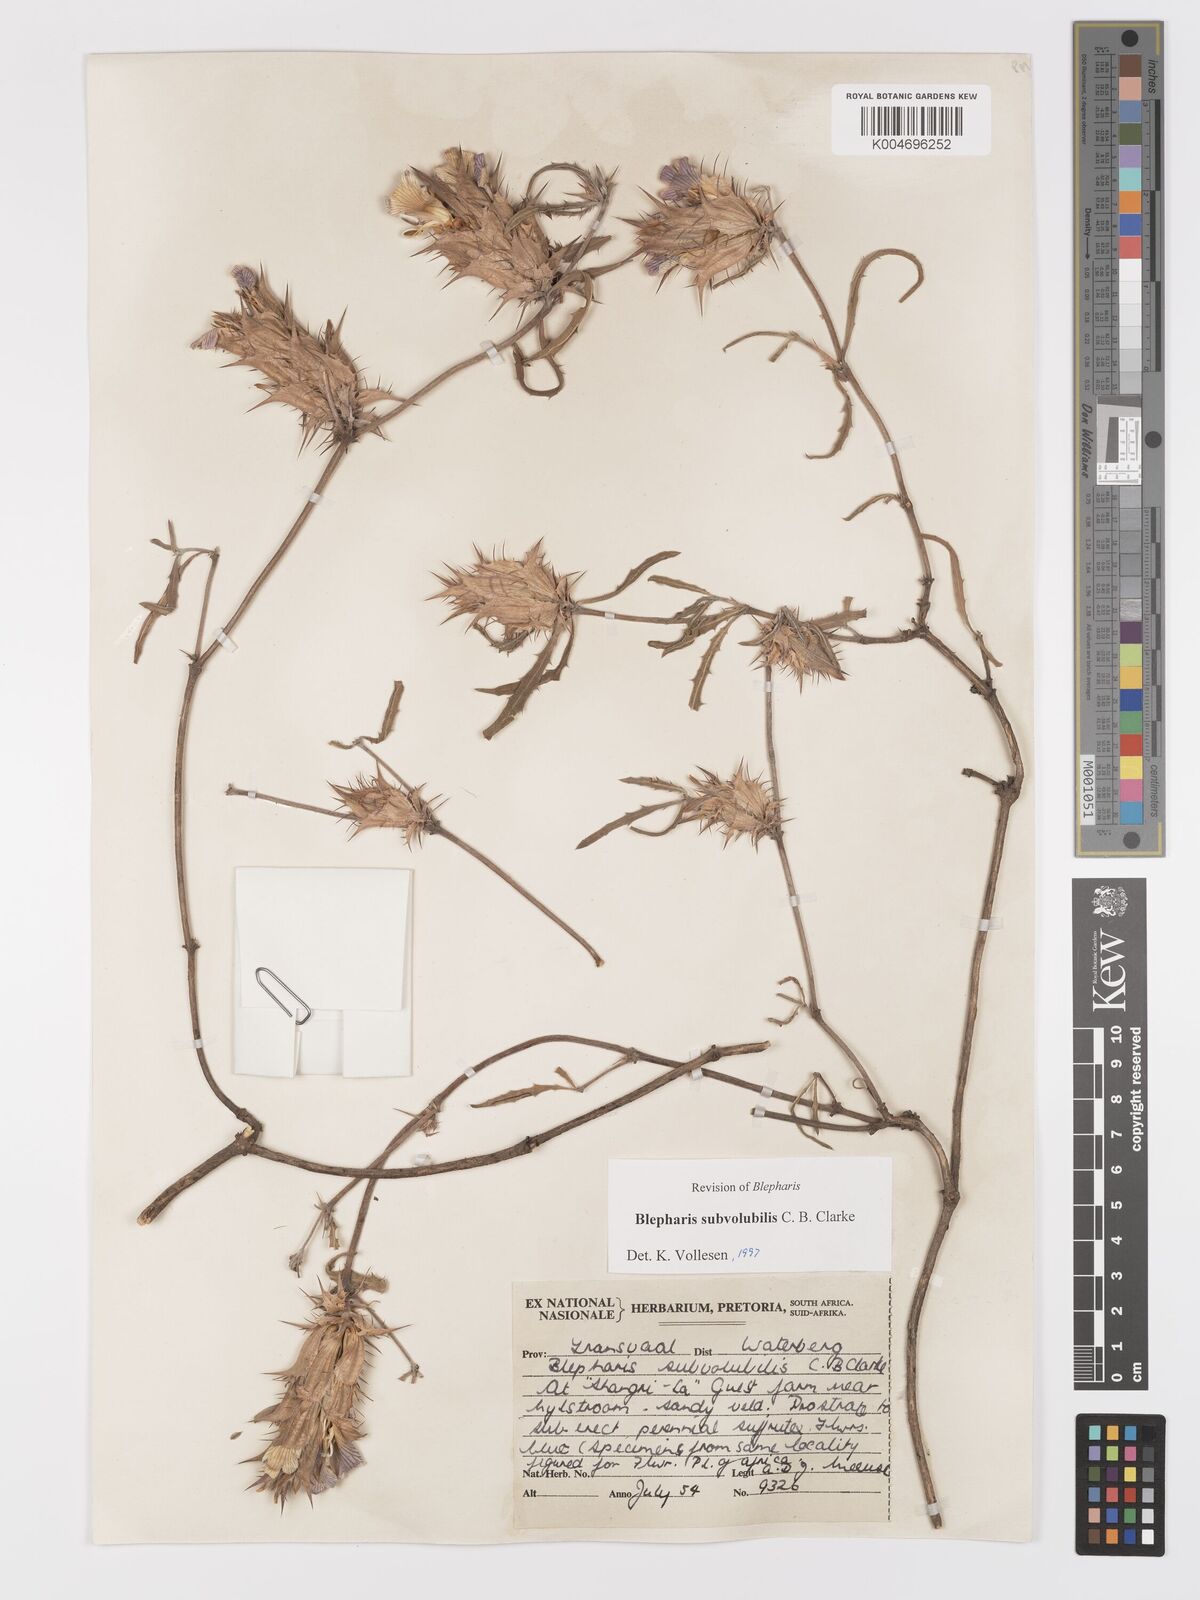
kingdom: Plantae
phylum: Tracheophyta
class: Magnoliopsida
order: Lamiales
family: Acanthaceae
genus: Blepharis
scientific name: Blepharis subvolubilis
